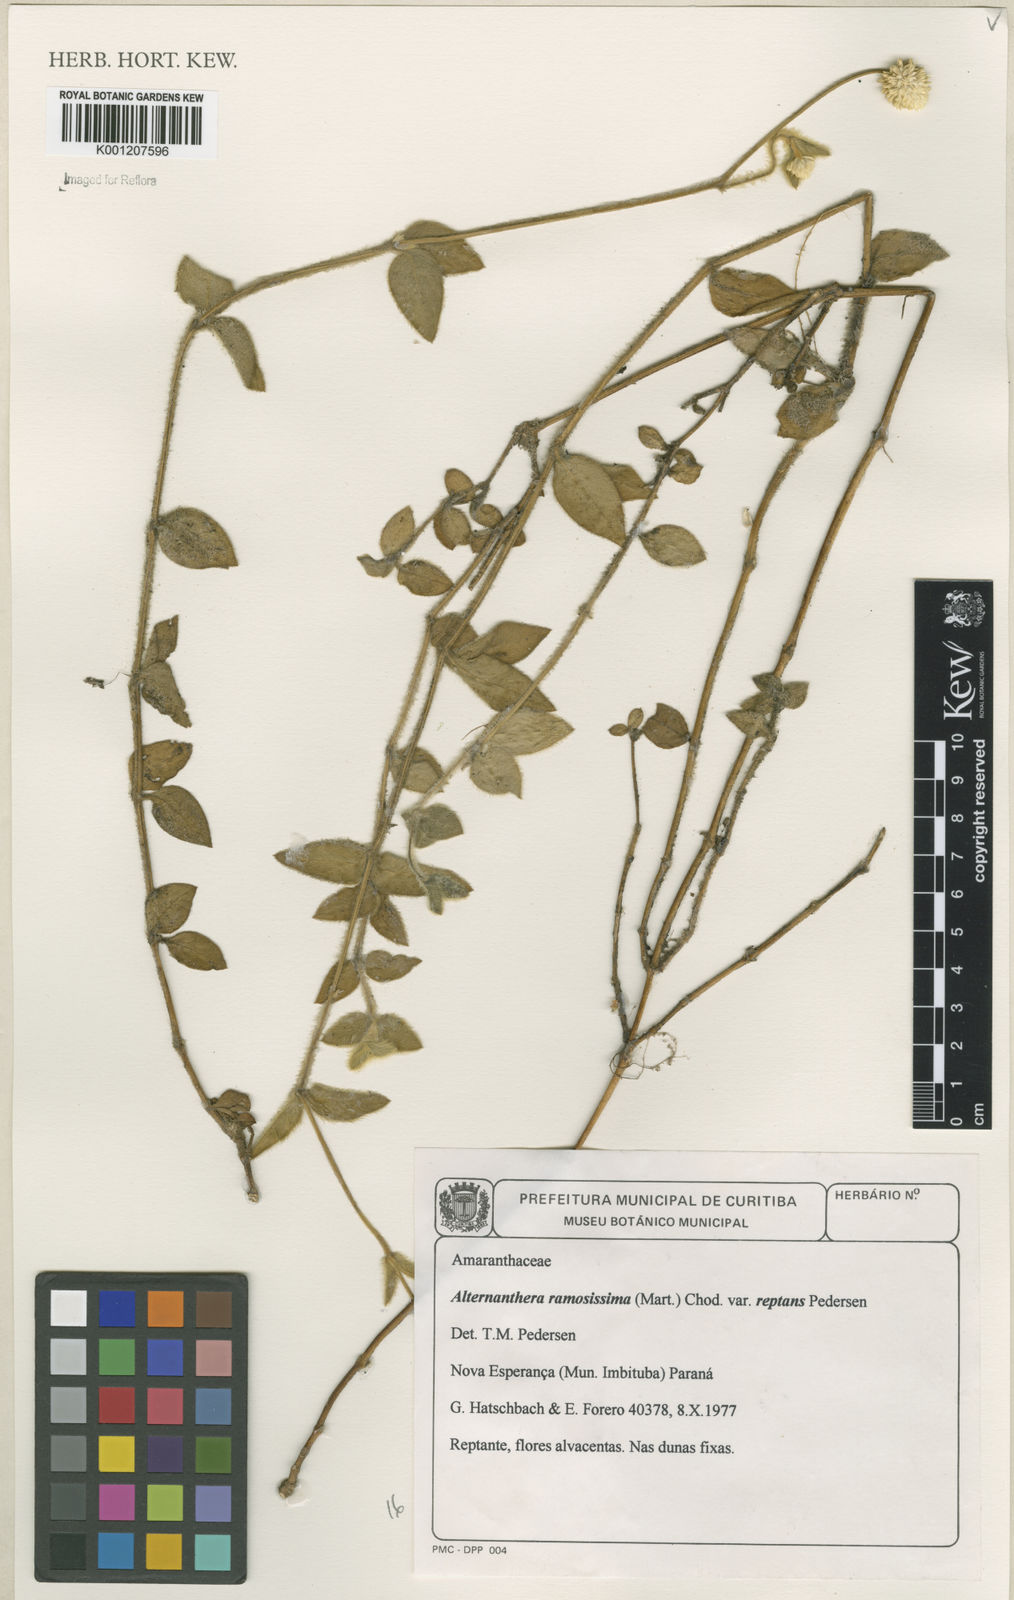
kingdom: Plantae
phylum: Tracheophyta
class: Magnoliopsida
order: Caryophyllales
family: Amaranthaceae
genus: Alternanthera
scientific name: Alternanthera ramosissima
